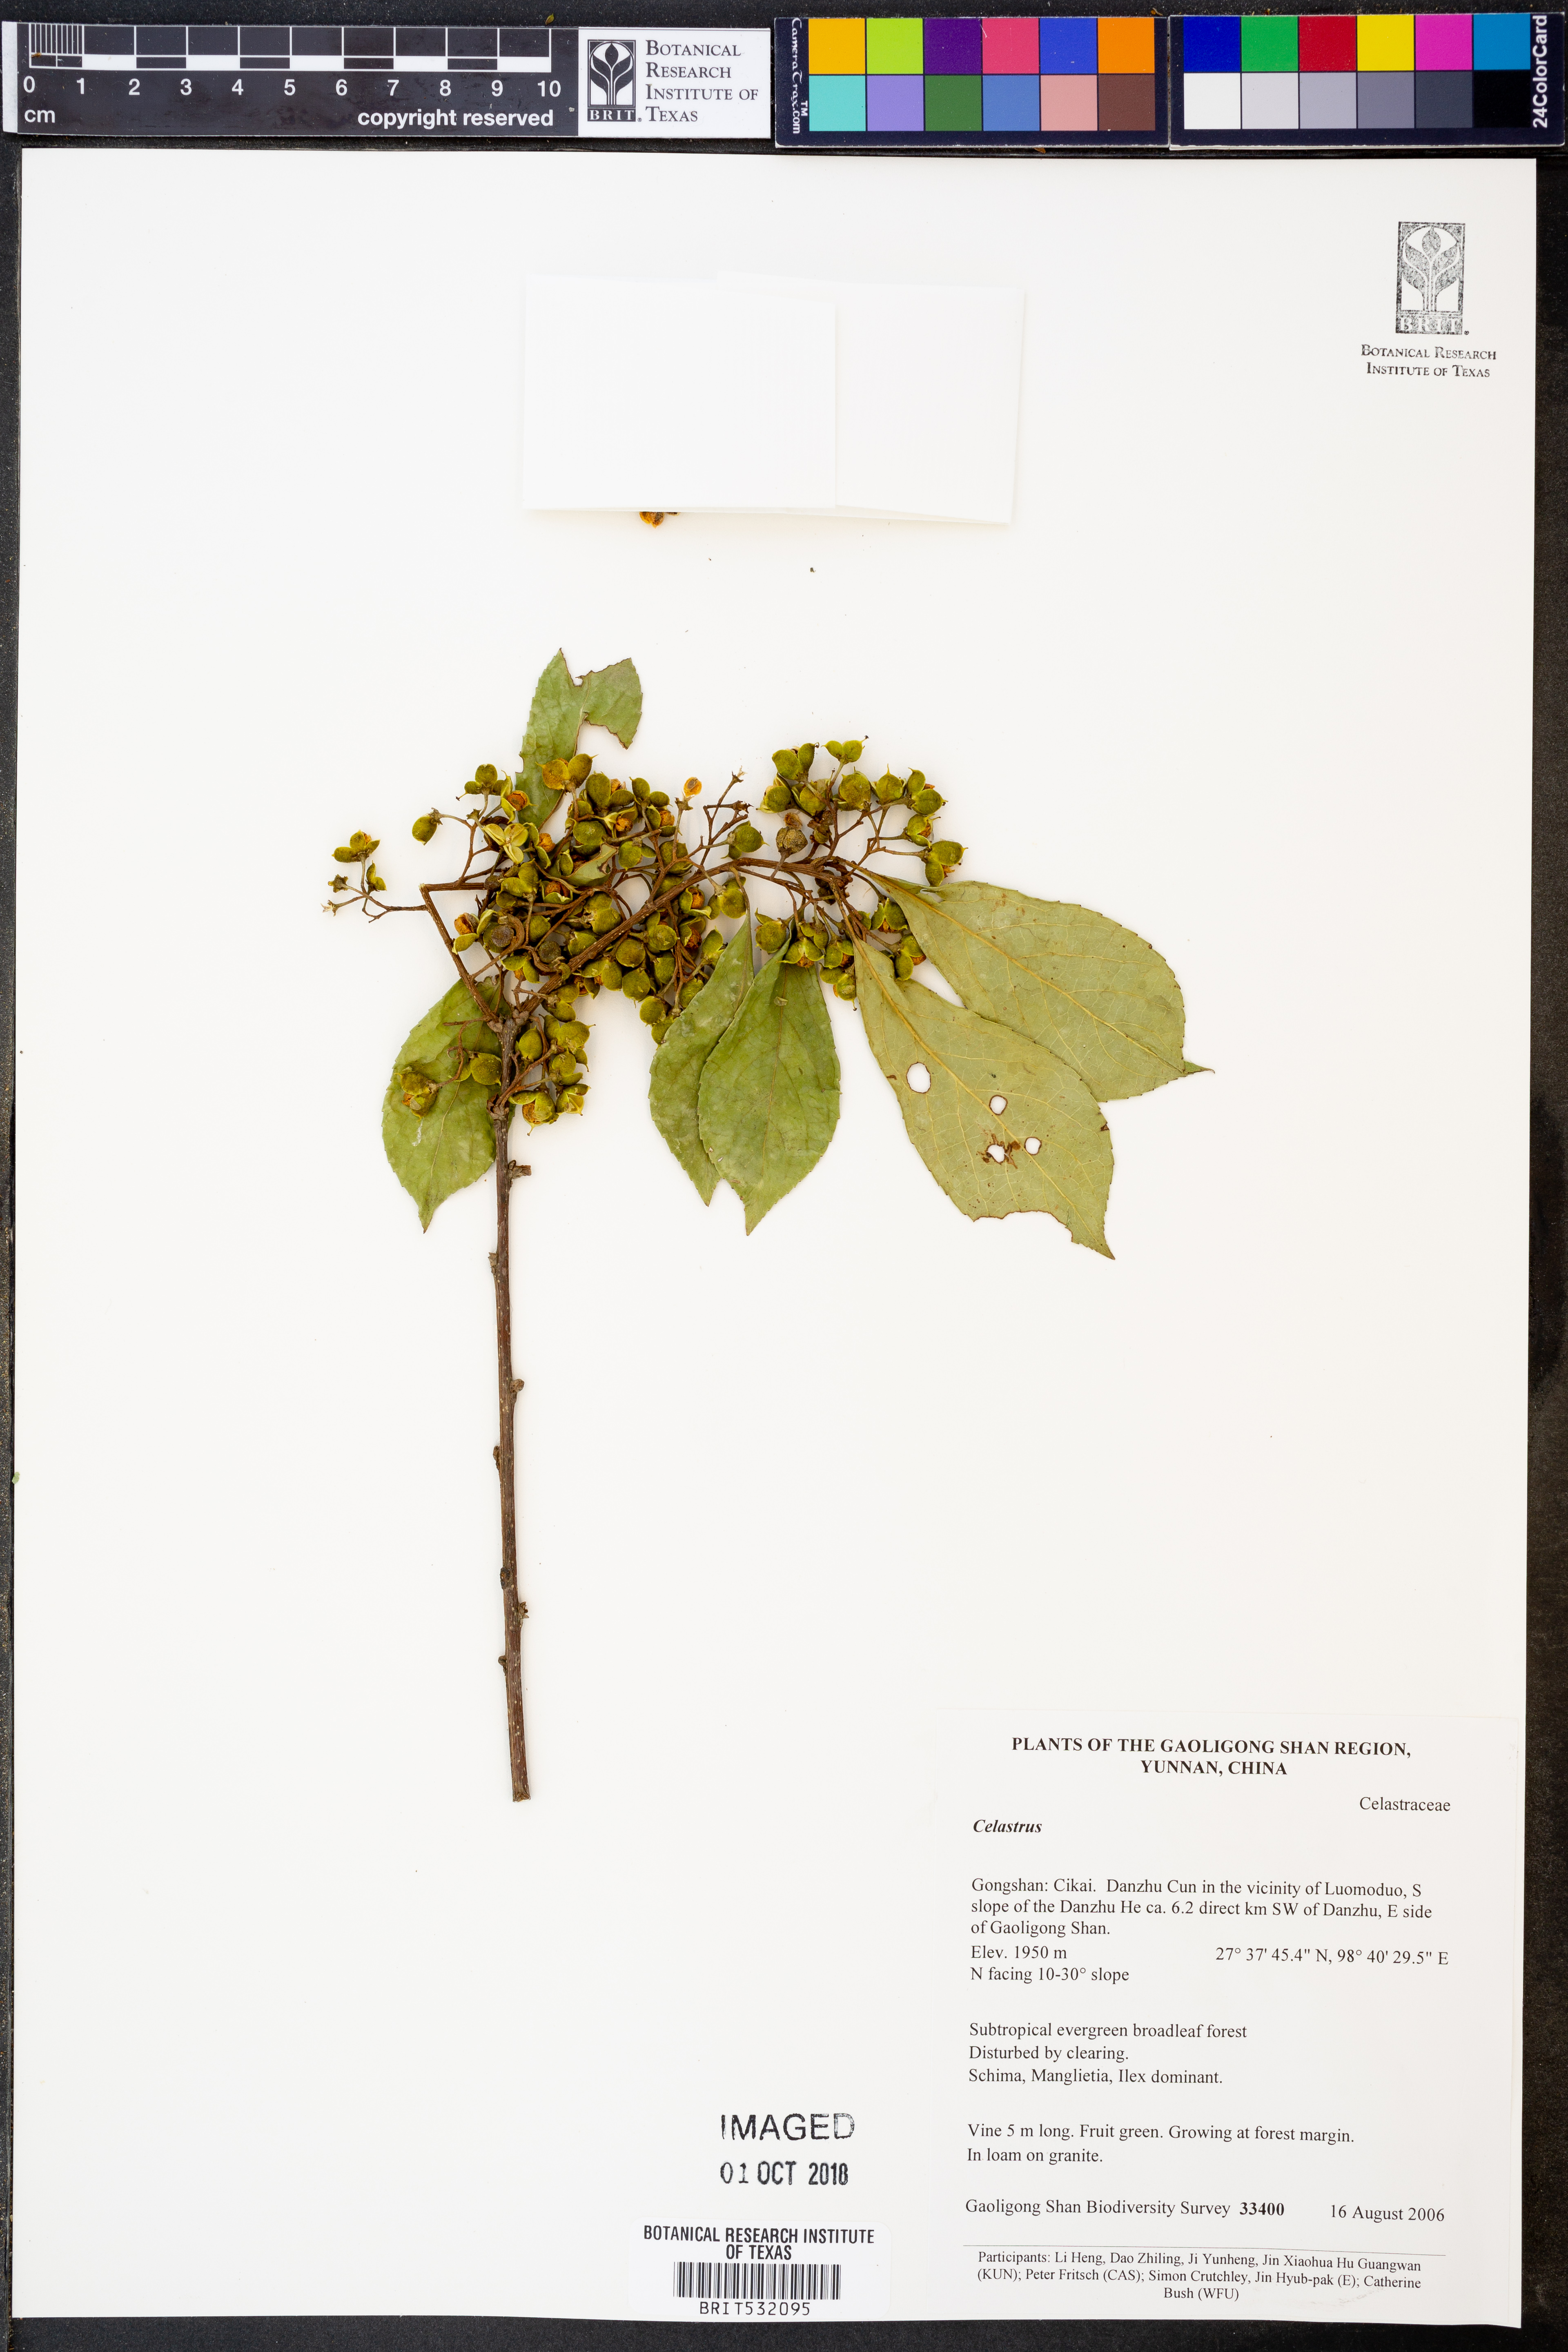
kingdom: Plantae
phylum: Tracheophyta
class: Magnoliopsida
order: Celastrales
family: Celastraceae
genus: Celastrus
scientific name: Celastrus
